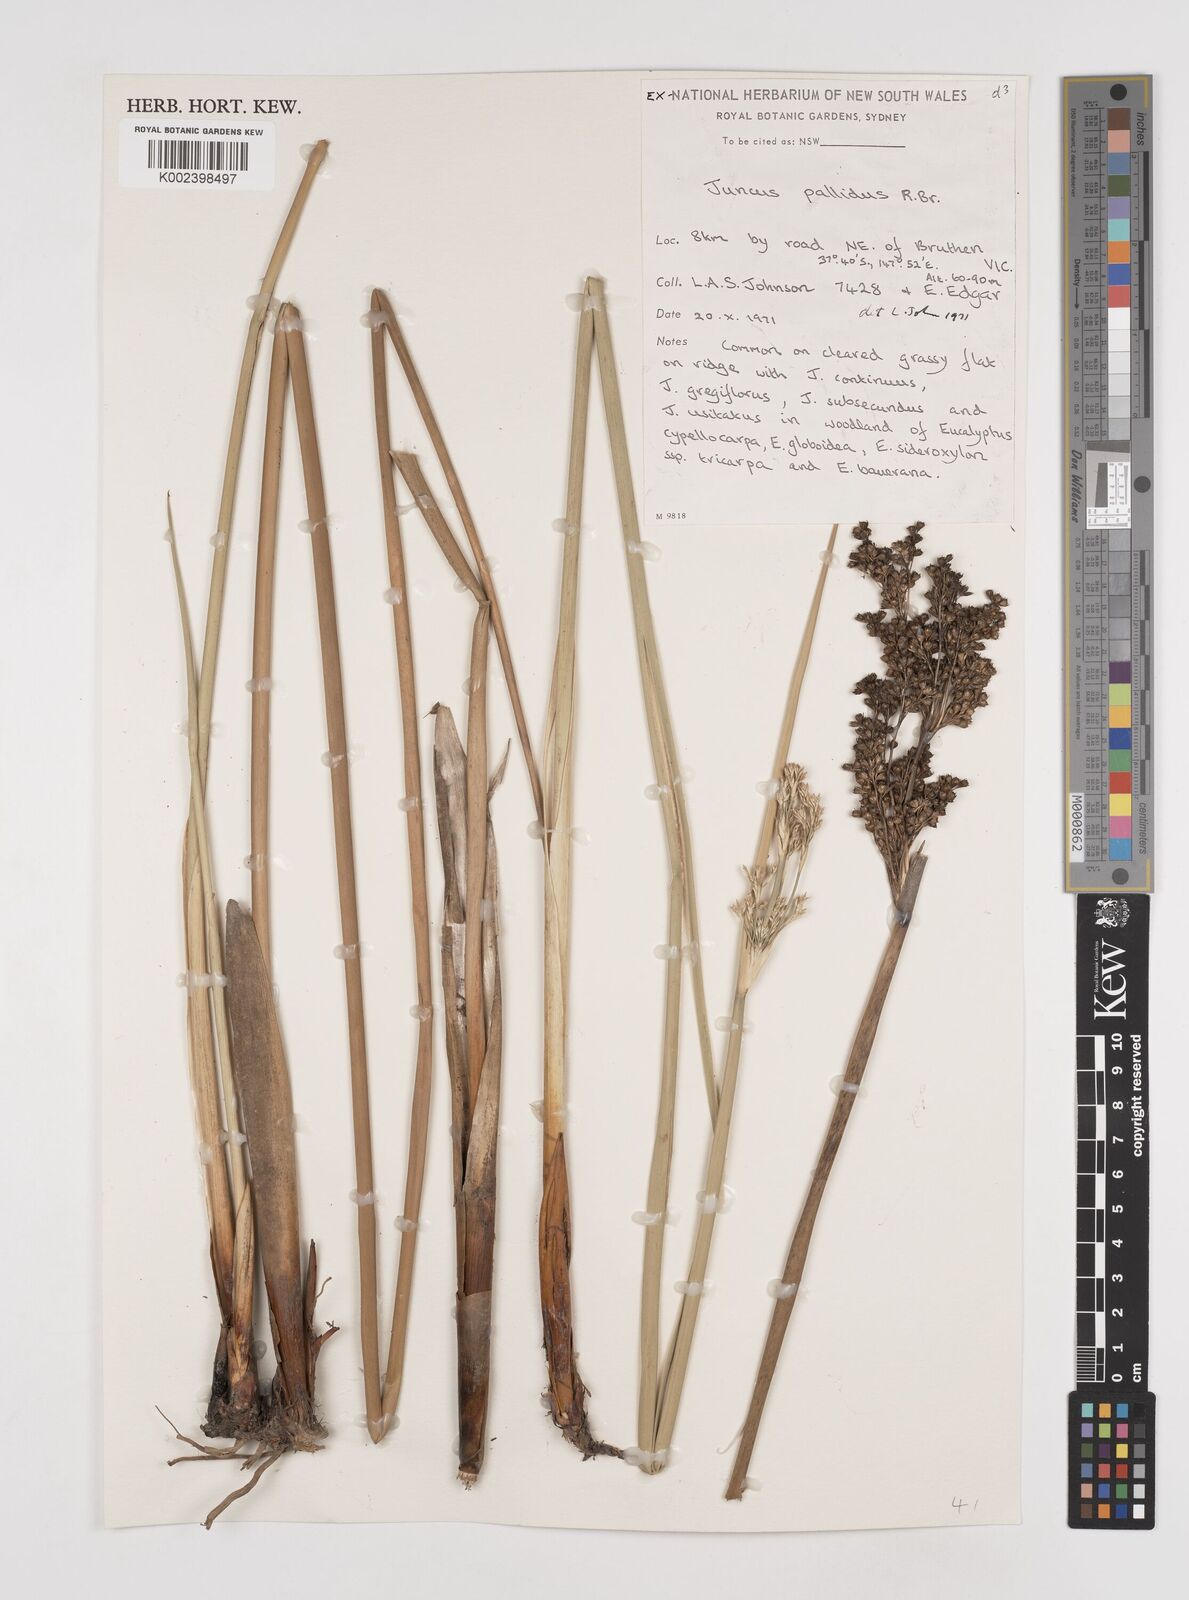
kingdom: Plantae
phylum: Tracheophyta
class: Liliopsida
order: Poales
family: Juncaceae
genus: Juncus
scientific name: Juncus pallidus
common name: Great soft-rush
